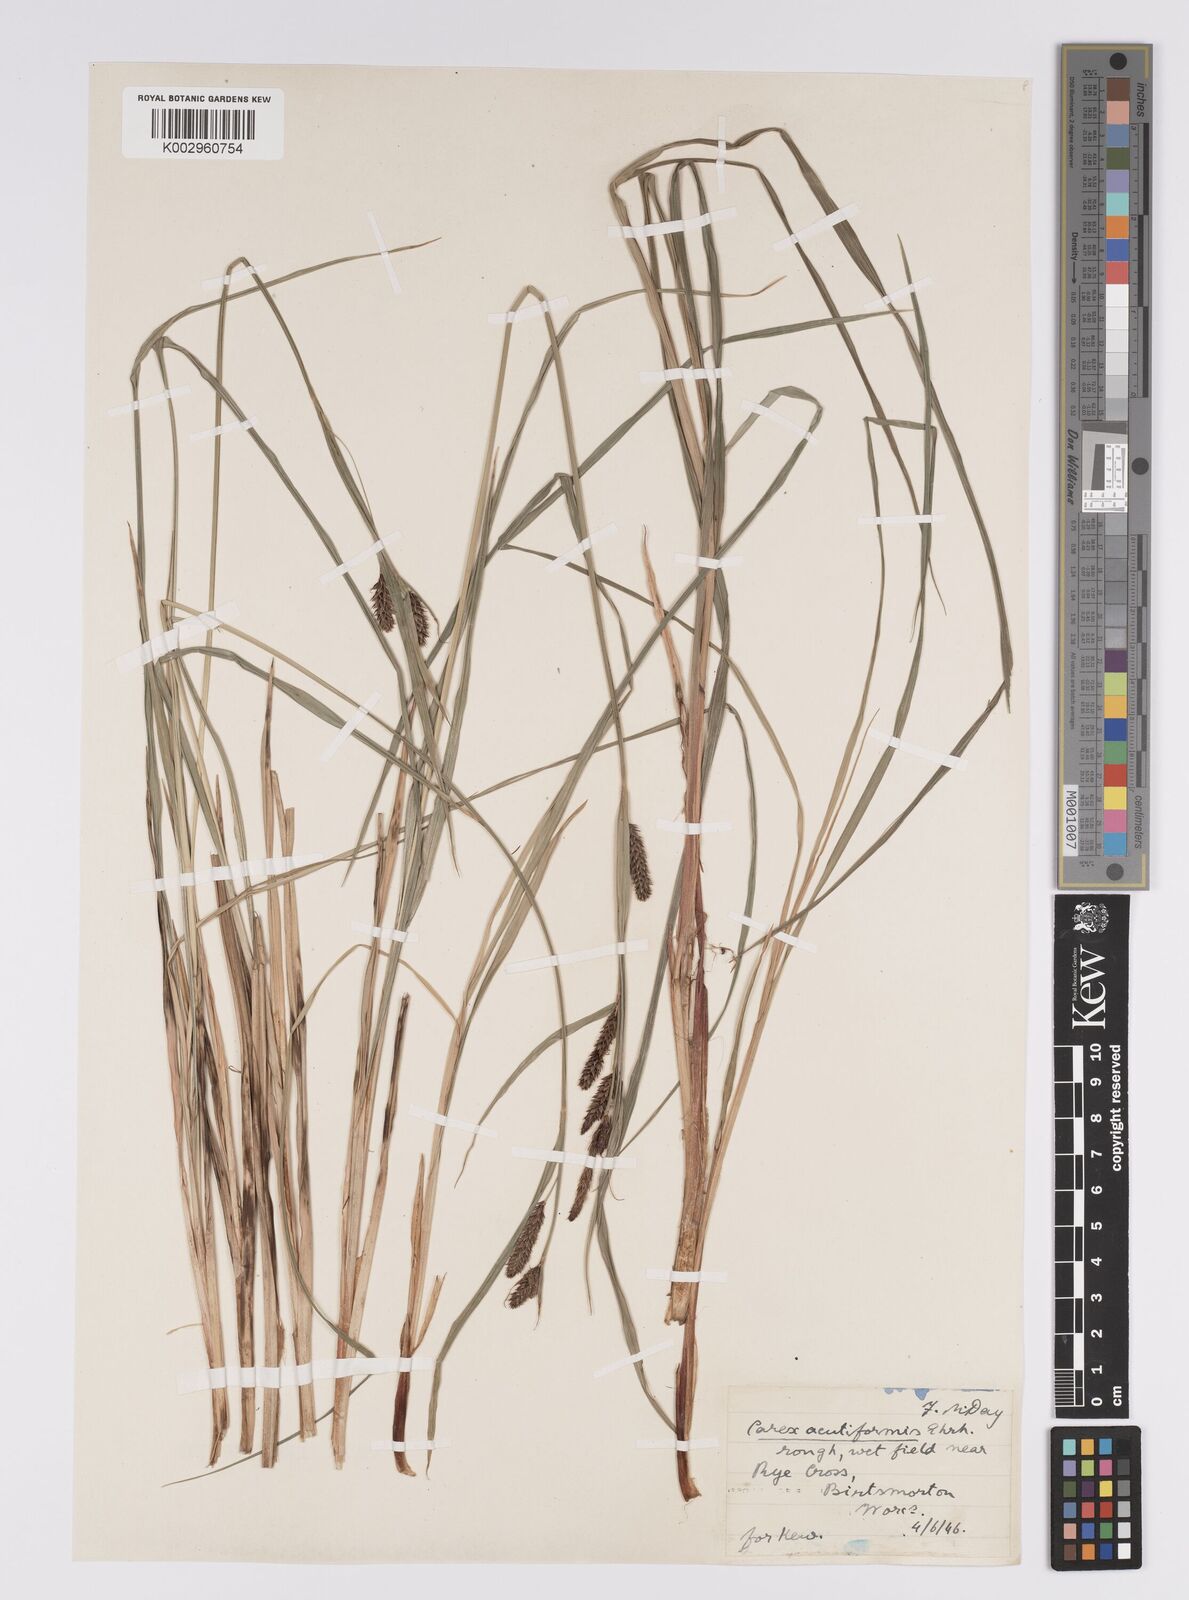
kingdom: Plantae
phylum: Tracheophyta
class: Liliopsida
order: Poales
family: Cyperaceae
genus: Carex
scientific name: Carex acutiformis
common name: Lesser pond-sedge
